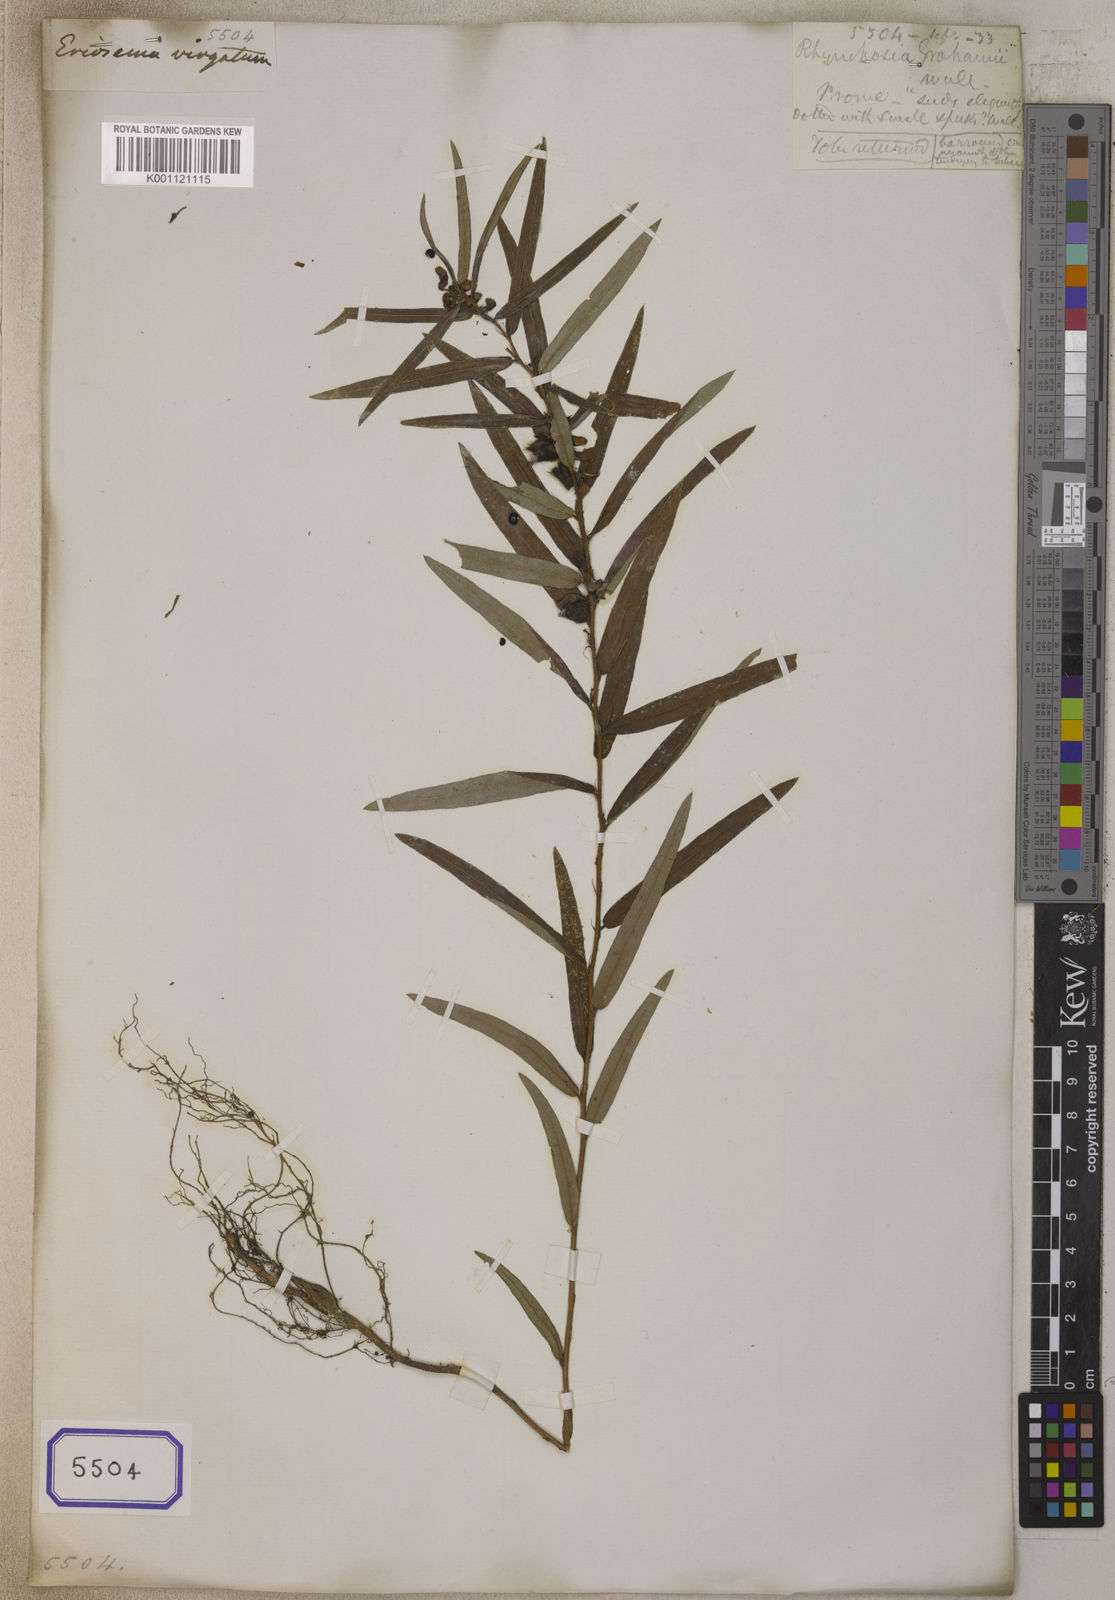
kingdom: Plantae
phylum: Tracheophyta
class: Magnoliopsida
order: Fabales
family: Fabaceae
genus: Eriosema
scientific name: Eriosema chinense
